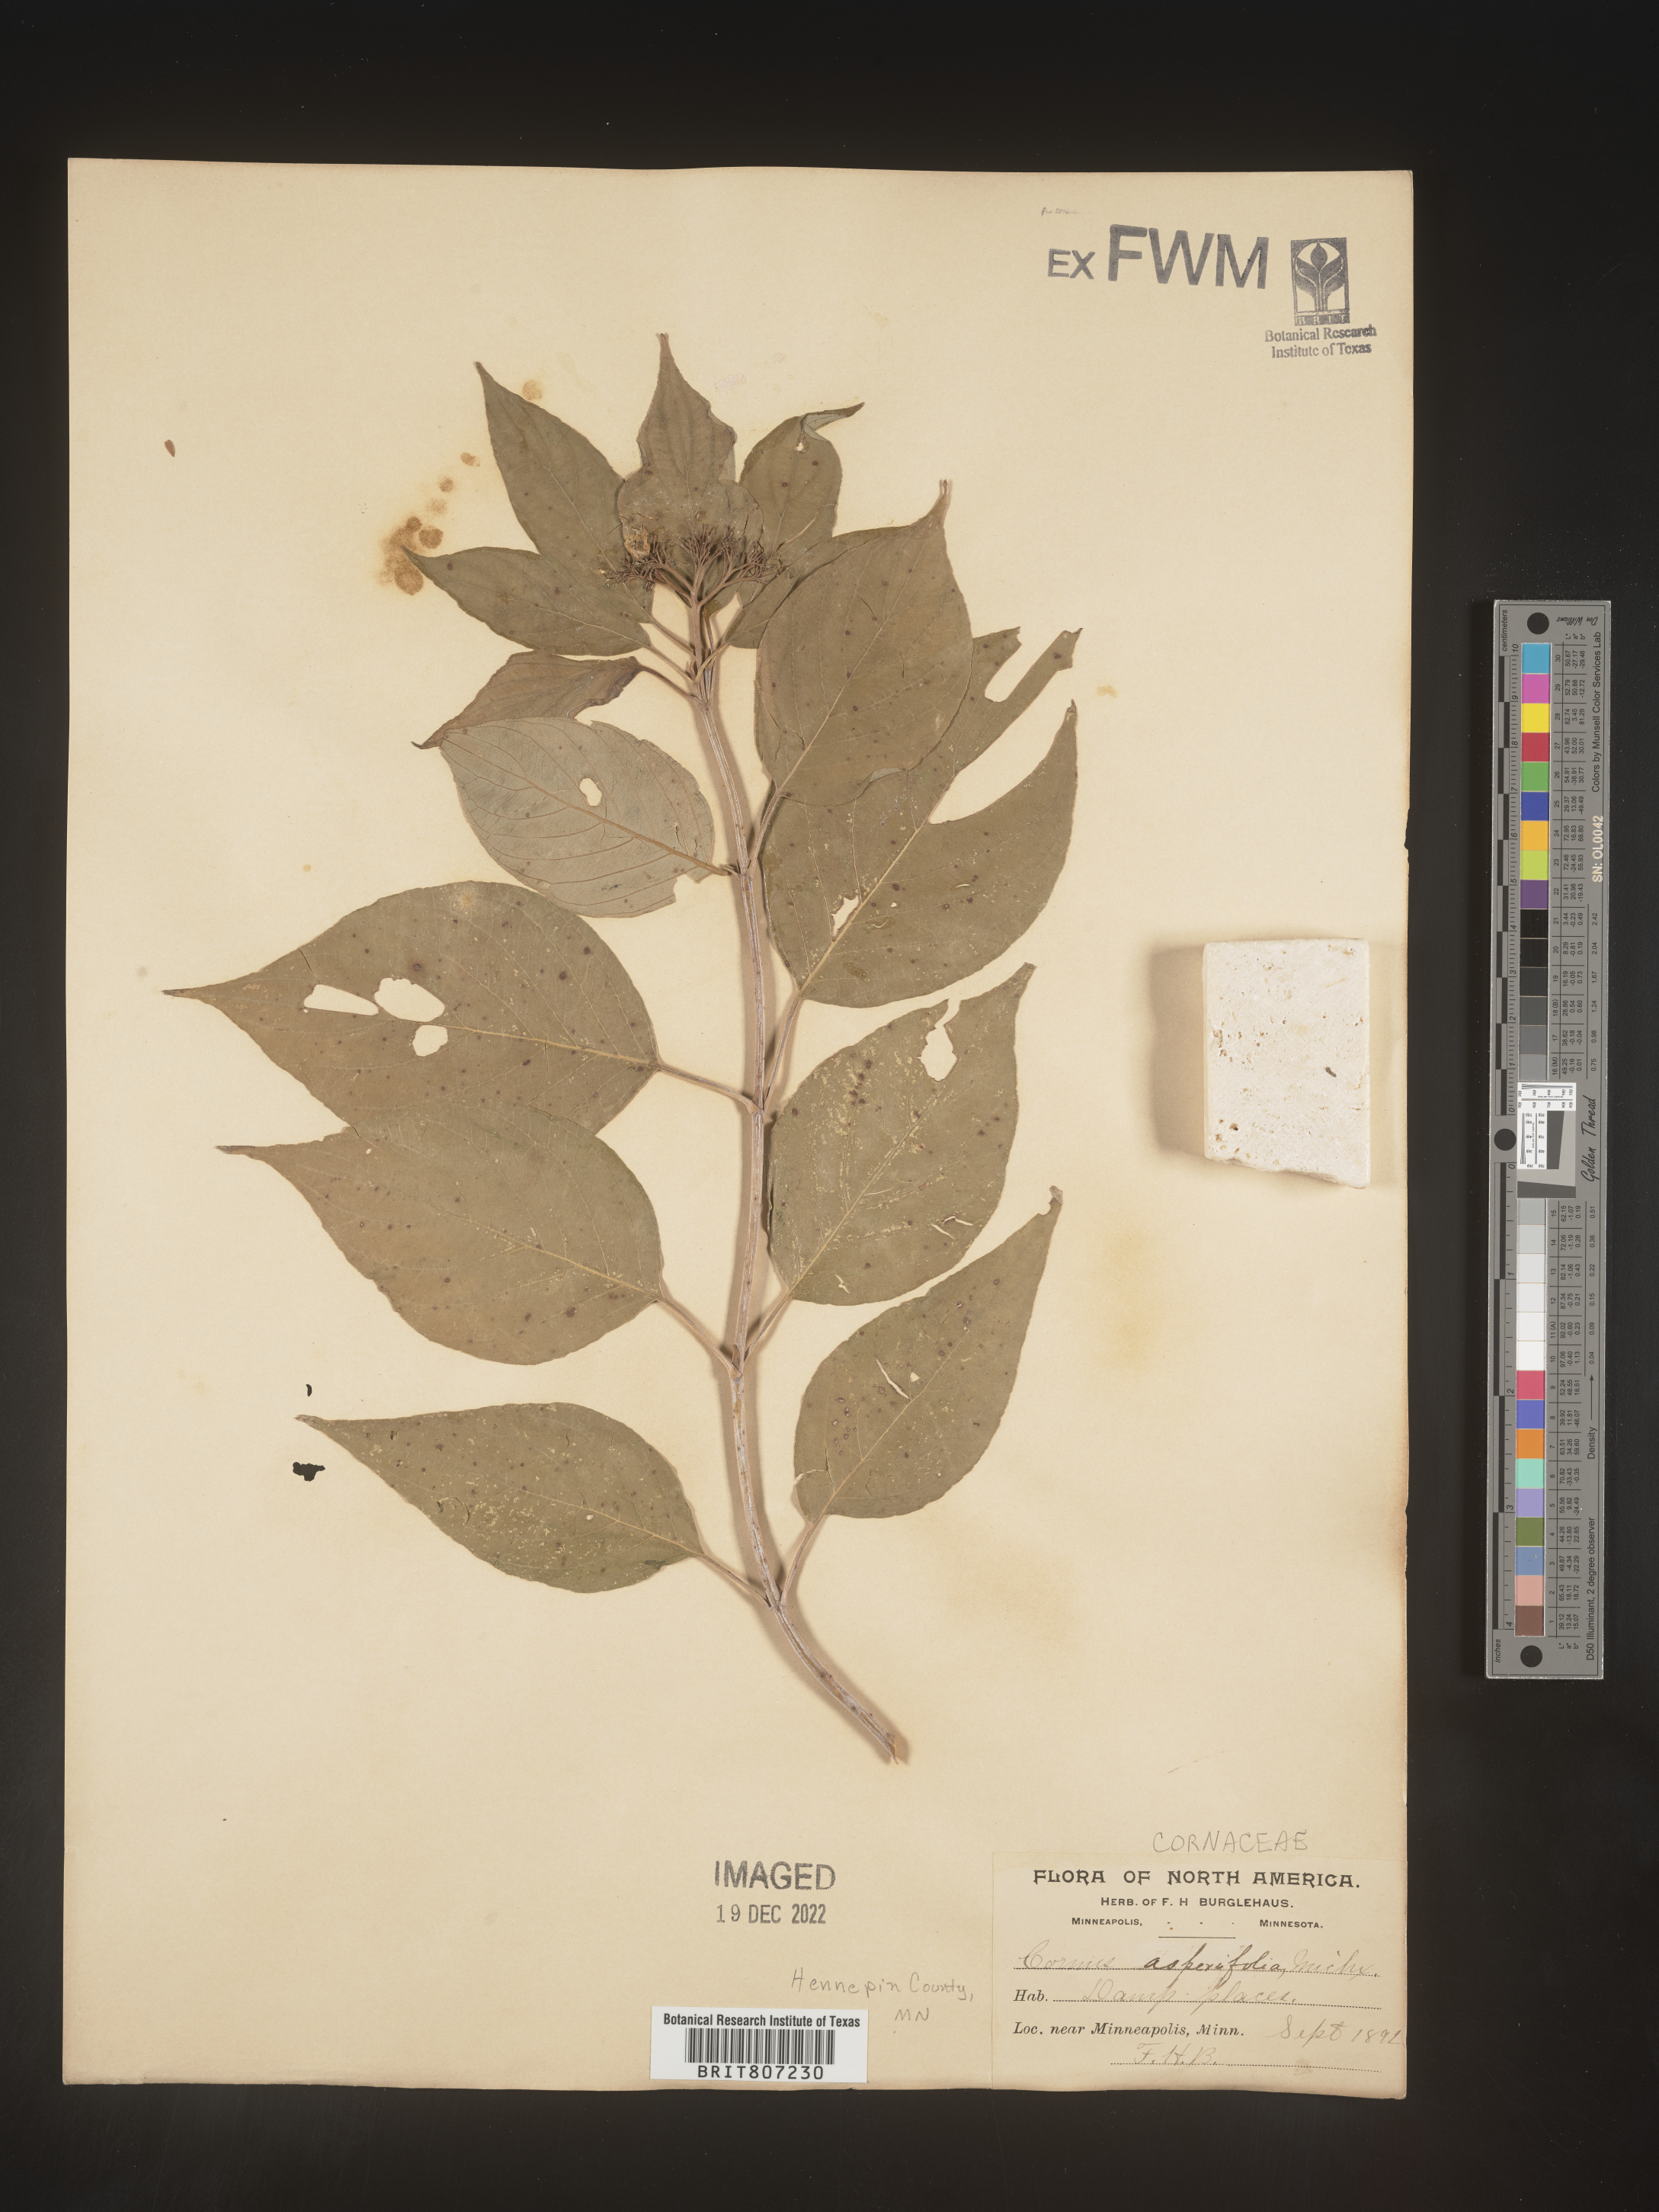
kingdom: Plantae
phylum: Tracheophyta
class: Magnoliopsida
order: Cornales
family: Cornaceae
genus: Cornus
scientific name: Cornus asperifolia
